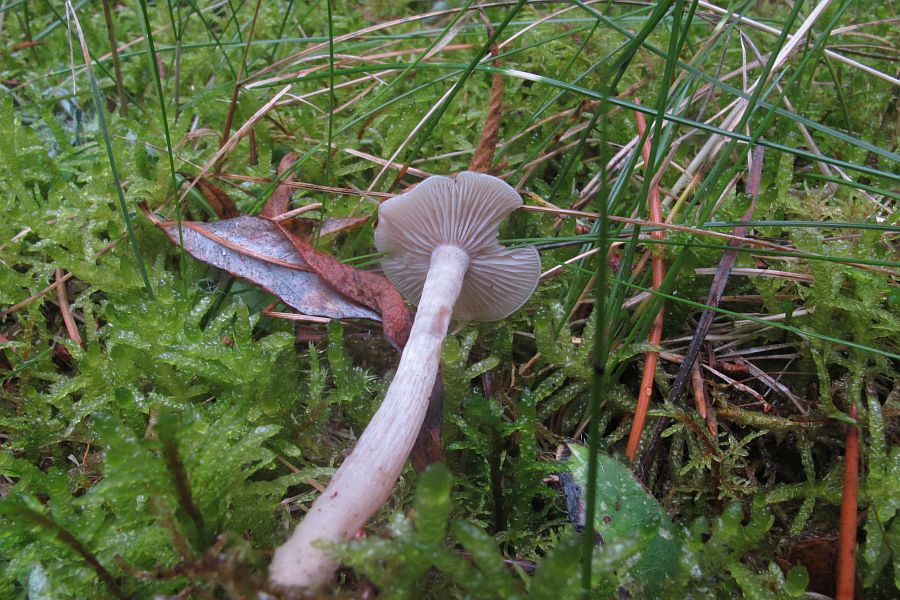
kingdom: Fungi
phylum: Basidiomycota
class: Agaricomycetes
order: Agaricales
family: Tricholomataceae
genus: Clitocybe
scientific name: Clitocybe obsoleta
